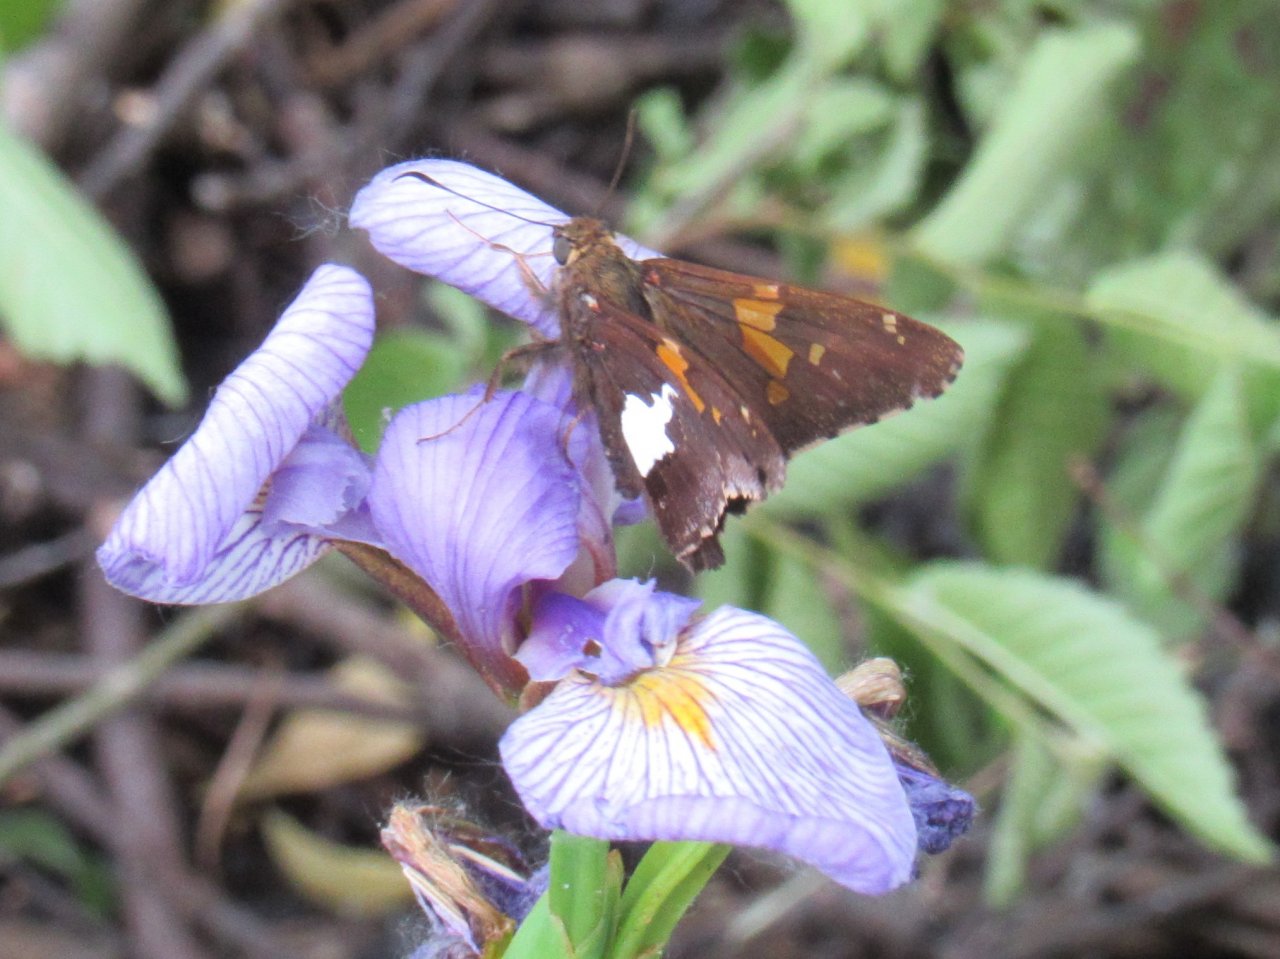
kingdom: Animalia
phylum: Arthropoda
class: Insecta
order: Lepidoptera
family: Hesperiidae
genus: Epargyreus
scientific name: Epargyreus clarus
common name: Silver-spotted Skipper
